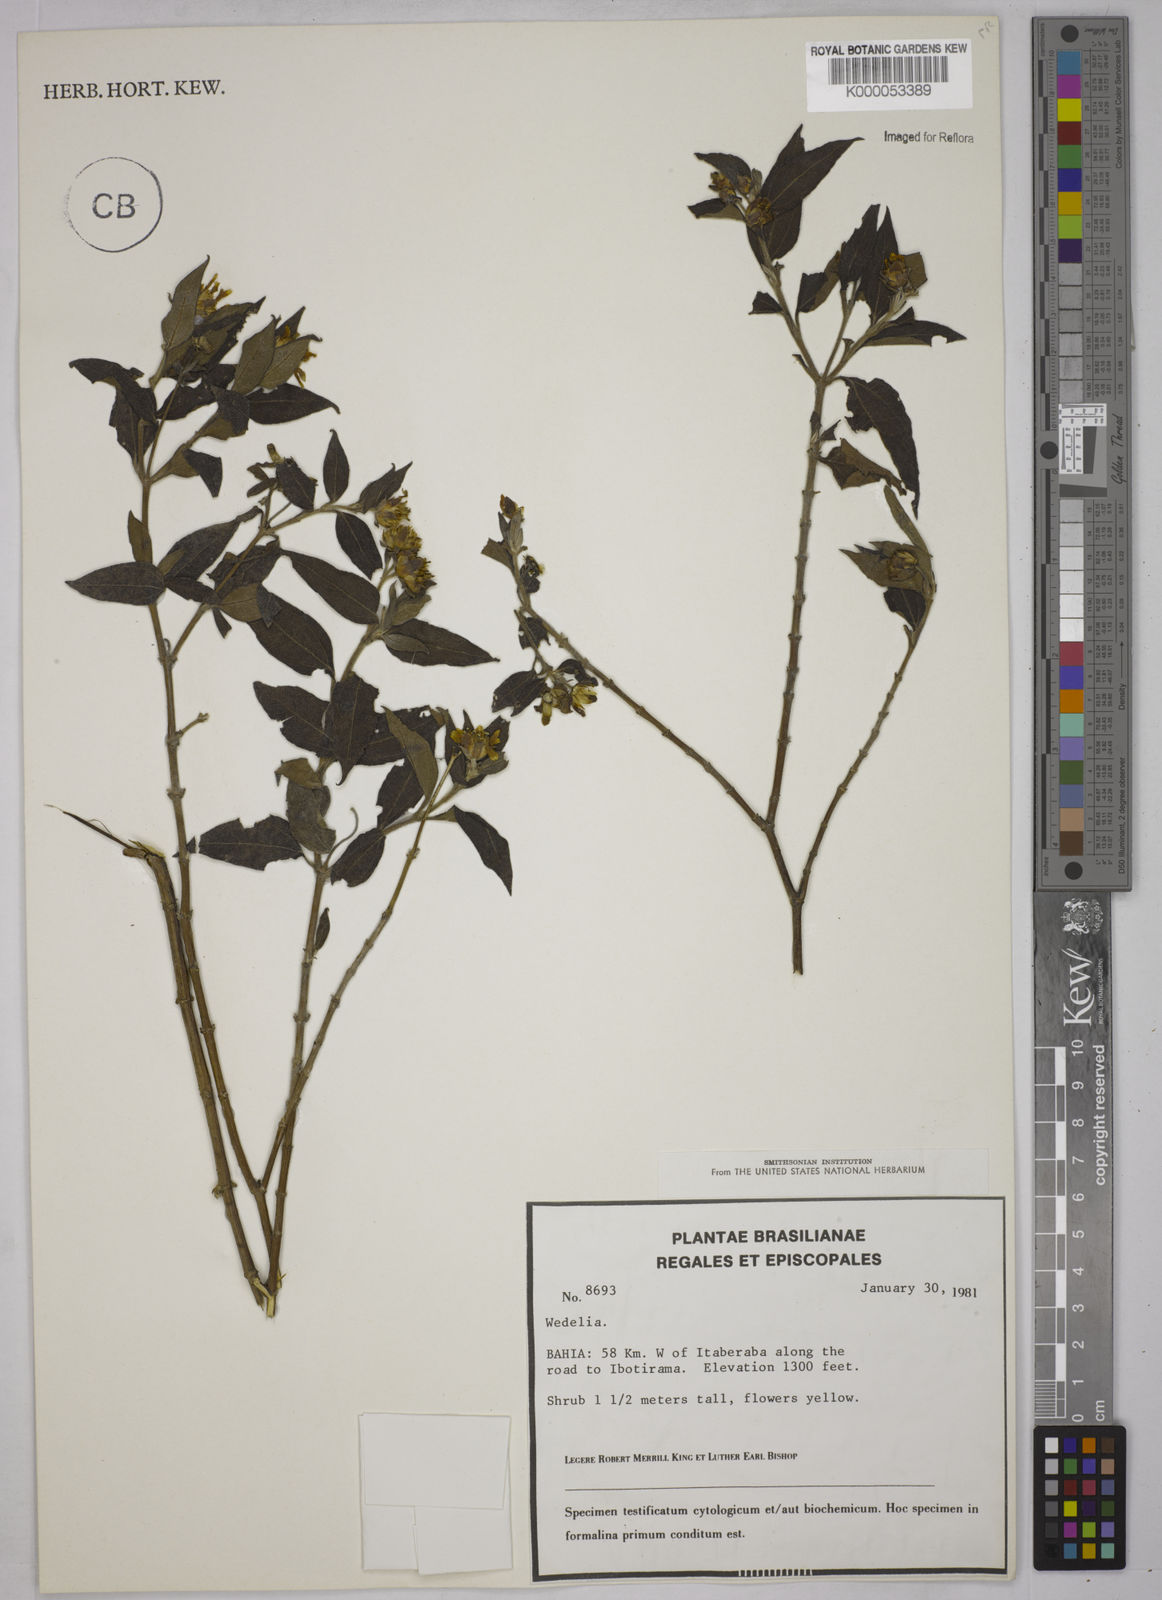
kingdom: Plantae
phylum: Tracheophyta
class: Magnoliopsida
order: Asterales
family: Asteraceae
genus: Wedelia
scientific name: Wedelia
